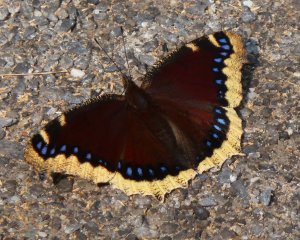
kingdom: Animalia
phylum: Arthropoda
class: Insecta
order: Lepidoptera
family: Nymphalidae
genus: Nymphalis
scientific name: Nymphalis antiopa
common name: Mourning Cloak
